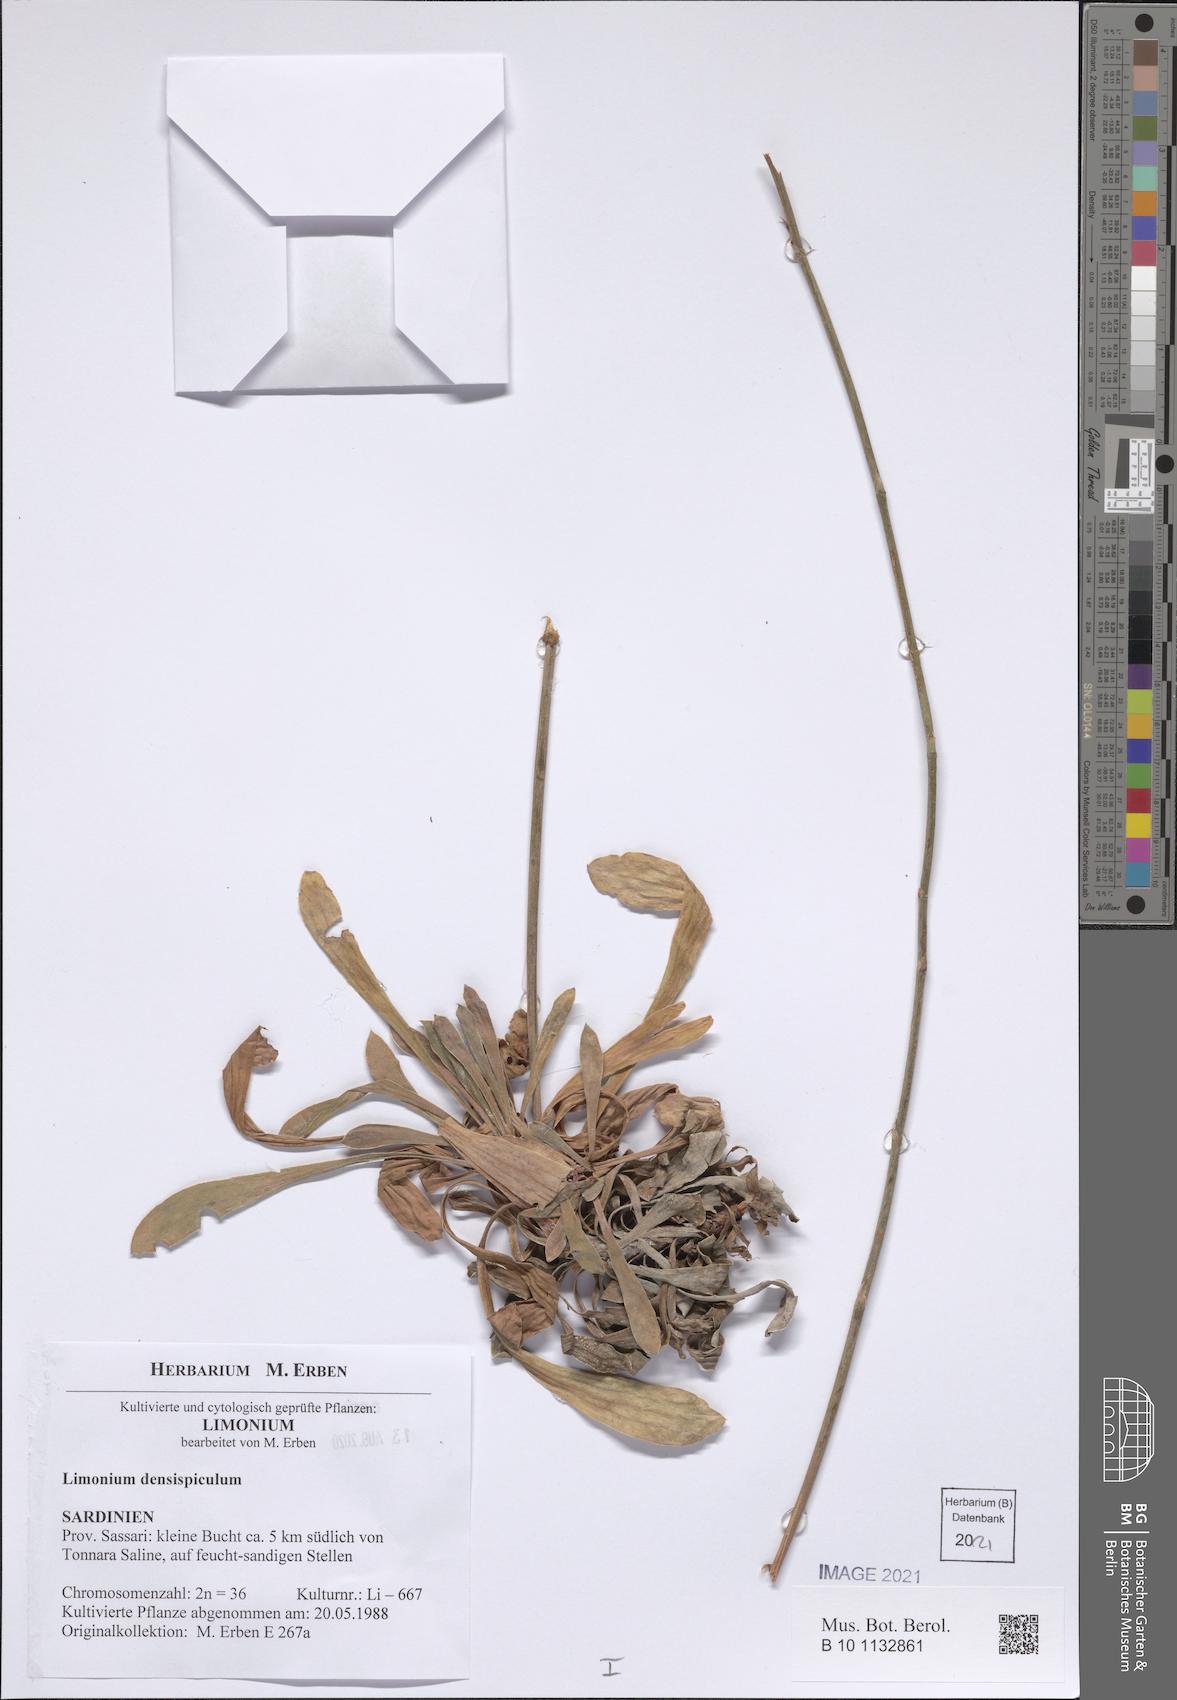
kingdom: Plantae
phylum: Tracheophyta
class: Magnoliopsida
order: Caryophyllales
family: Plumbaginaceae
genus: Limonium
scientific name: Limonium
